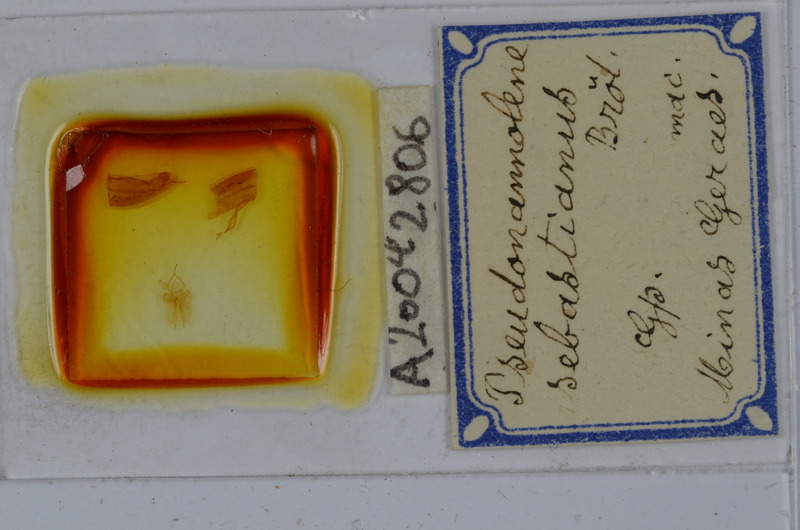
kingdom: Animalia
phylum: Arthropoda
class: Diplopoda
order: Spirostreptida
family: Pseudonannolenidae
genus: Pseudonannolene
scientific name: Pseudonannolene sebastianus
